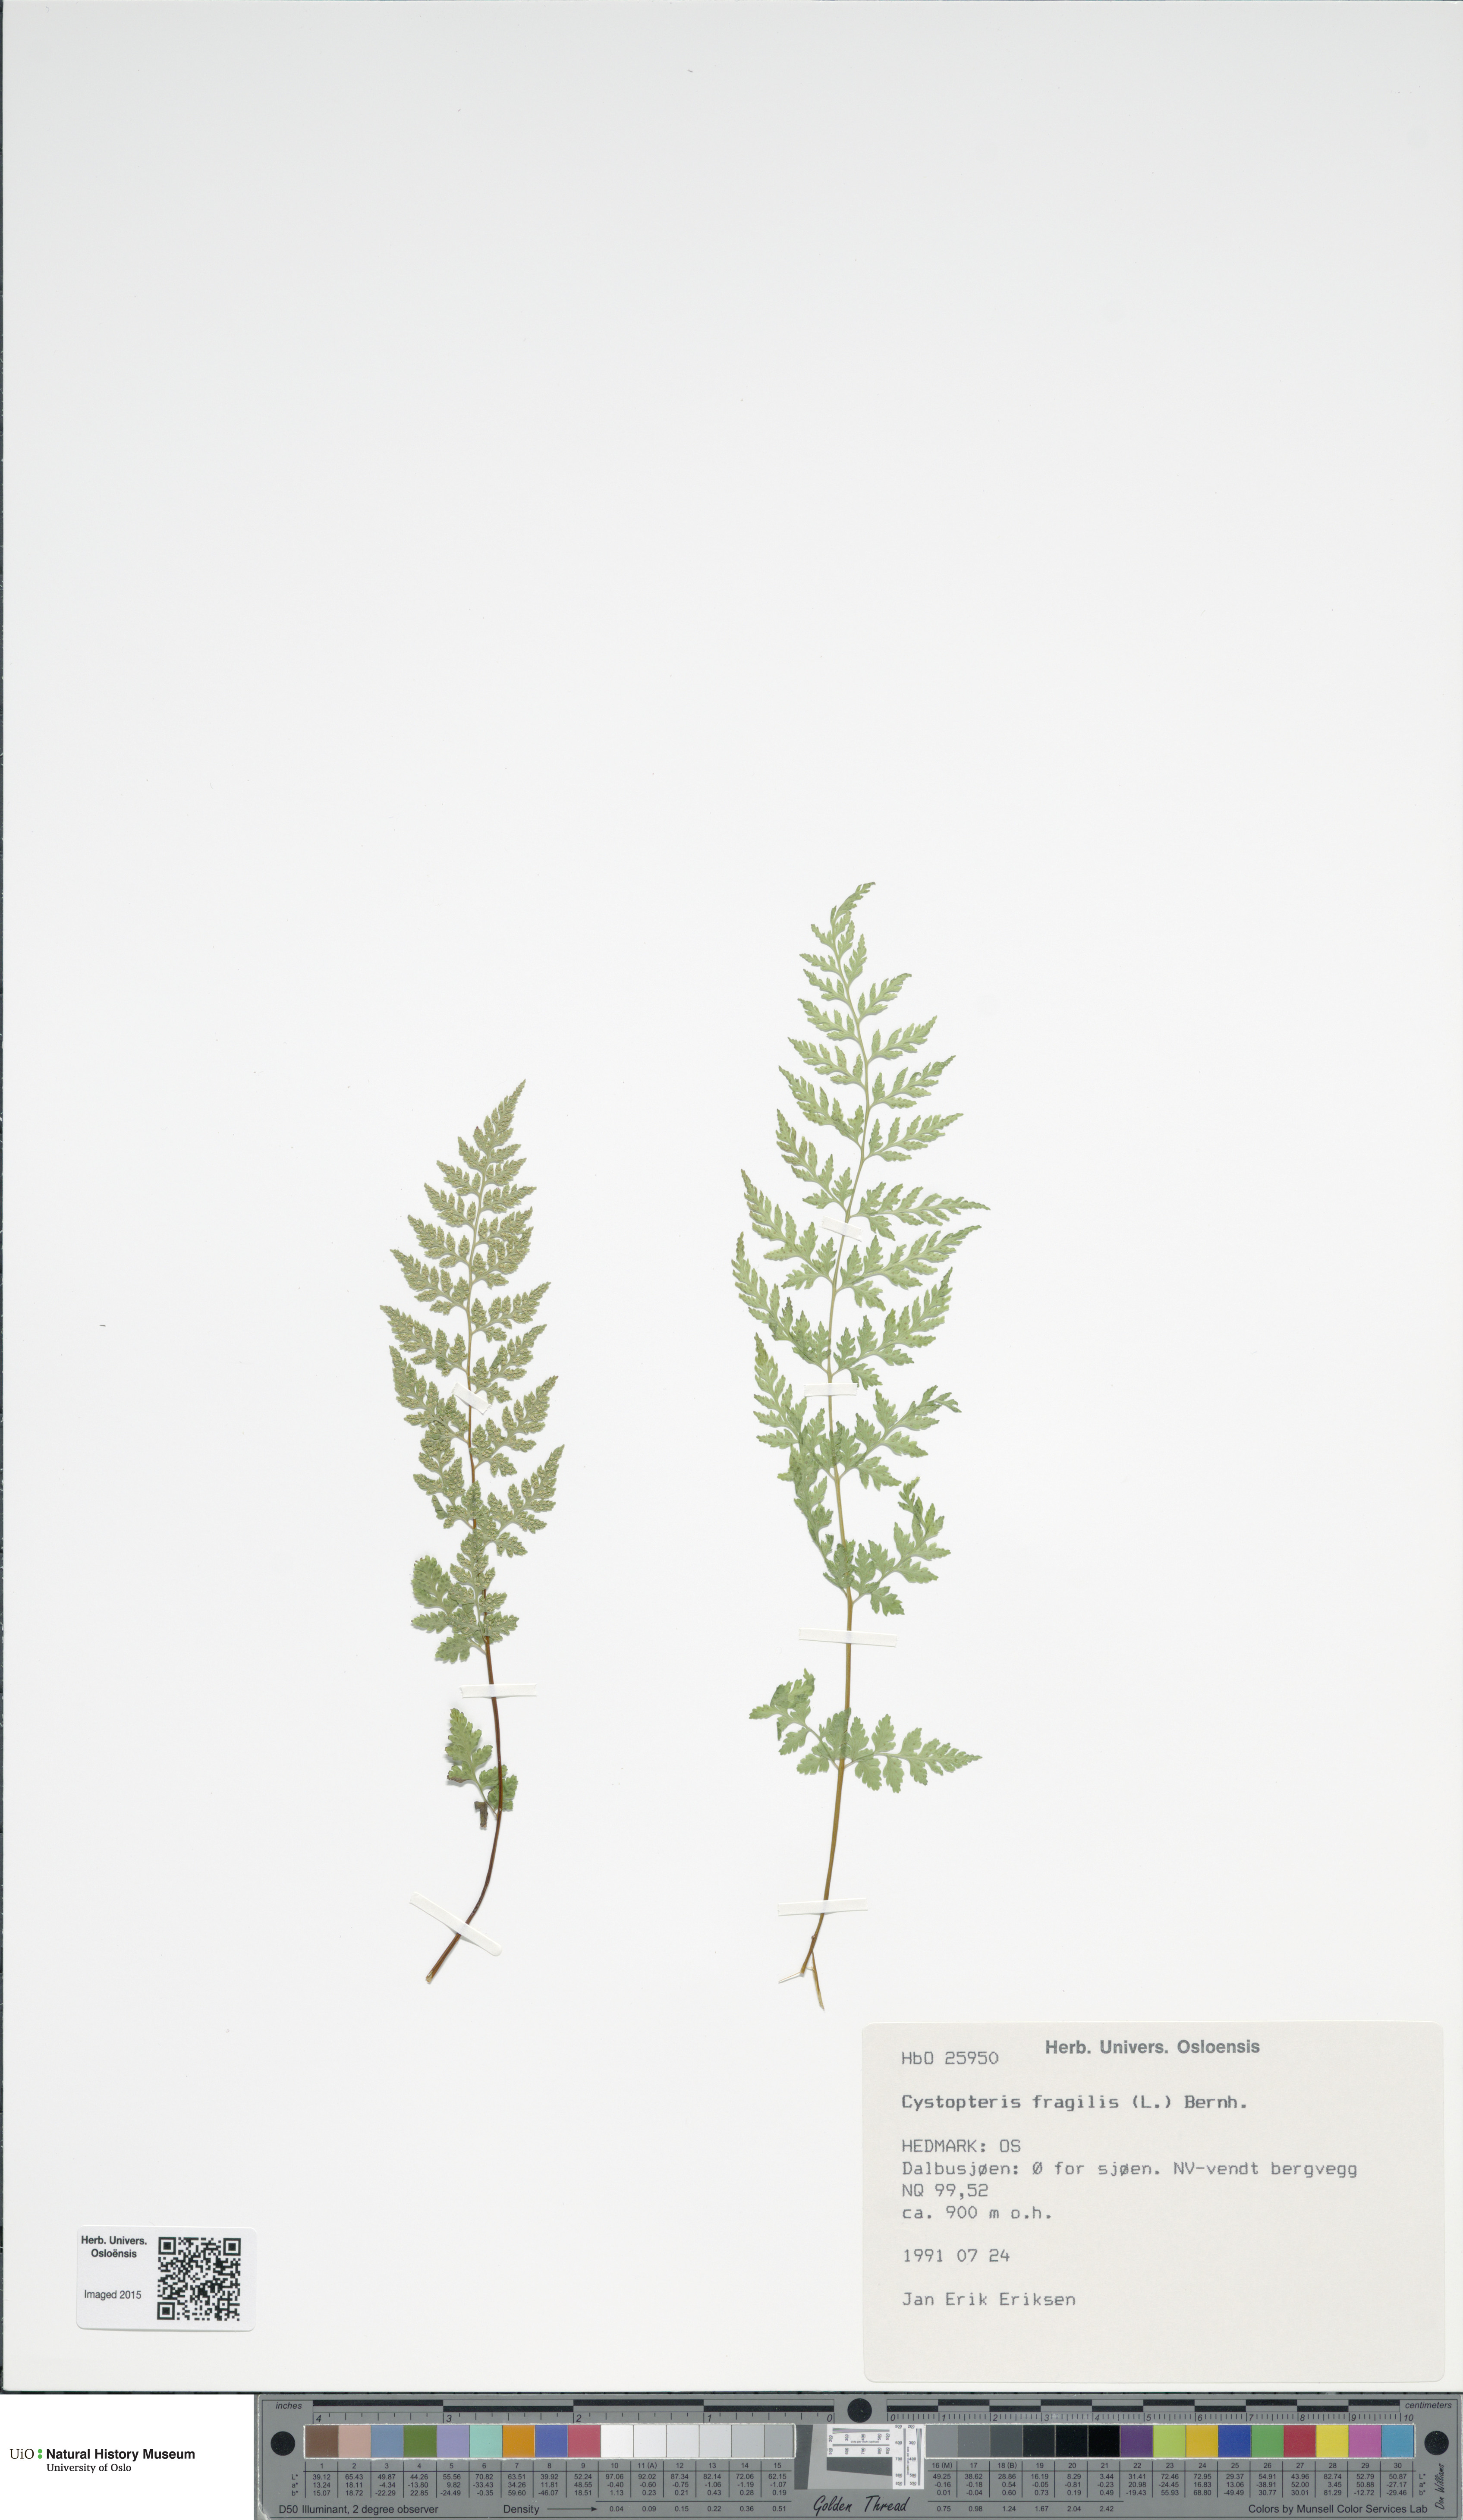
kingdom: Plantae
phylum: Tracheophyta
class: Polypodiopsida
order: Polypodiales
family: Cystopteridaceae
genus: Cystopteris
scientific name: Cystopteris fragilis
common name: Brittle bladder fern
